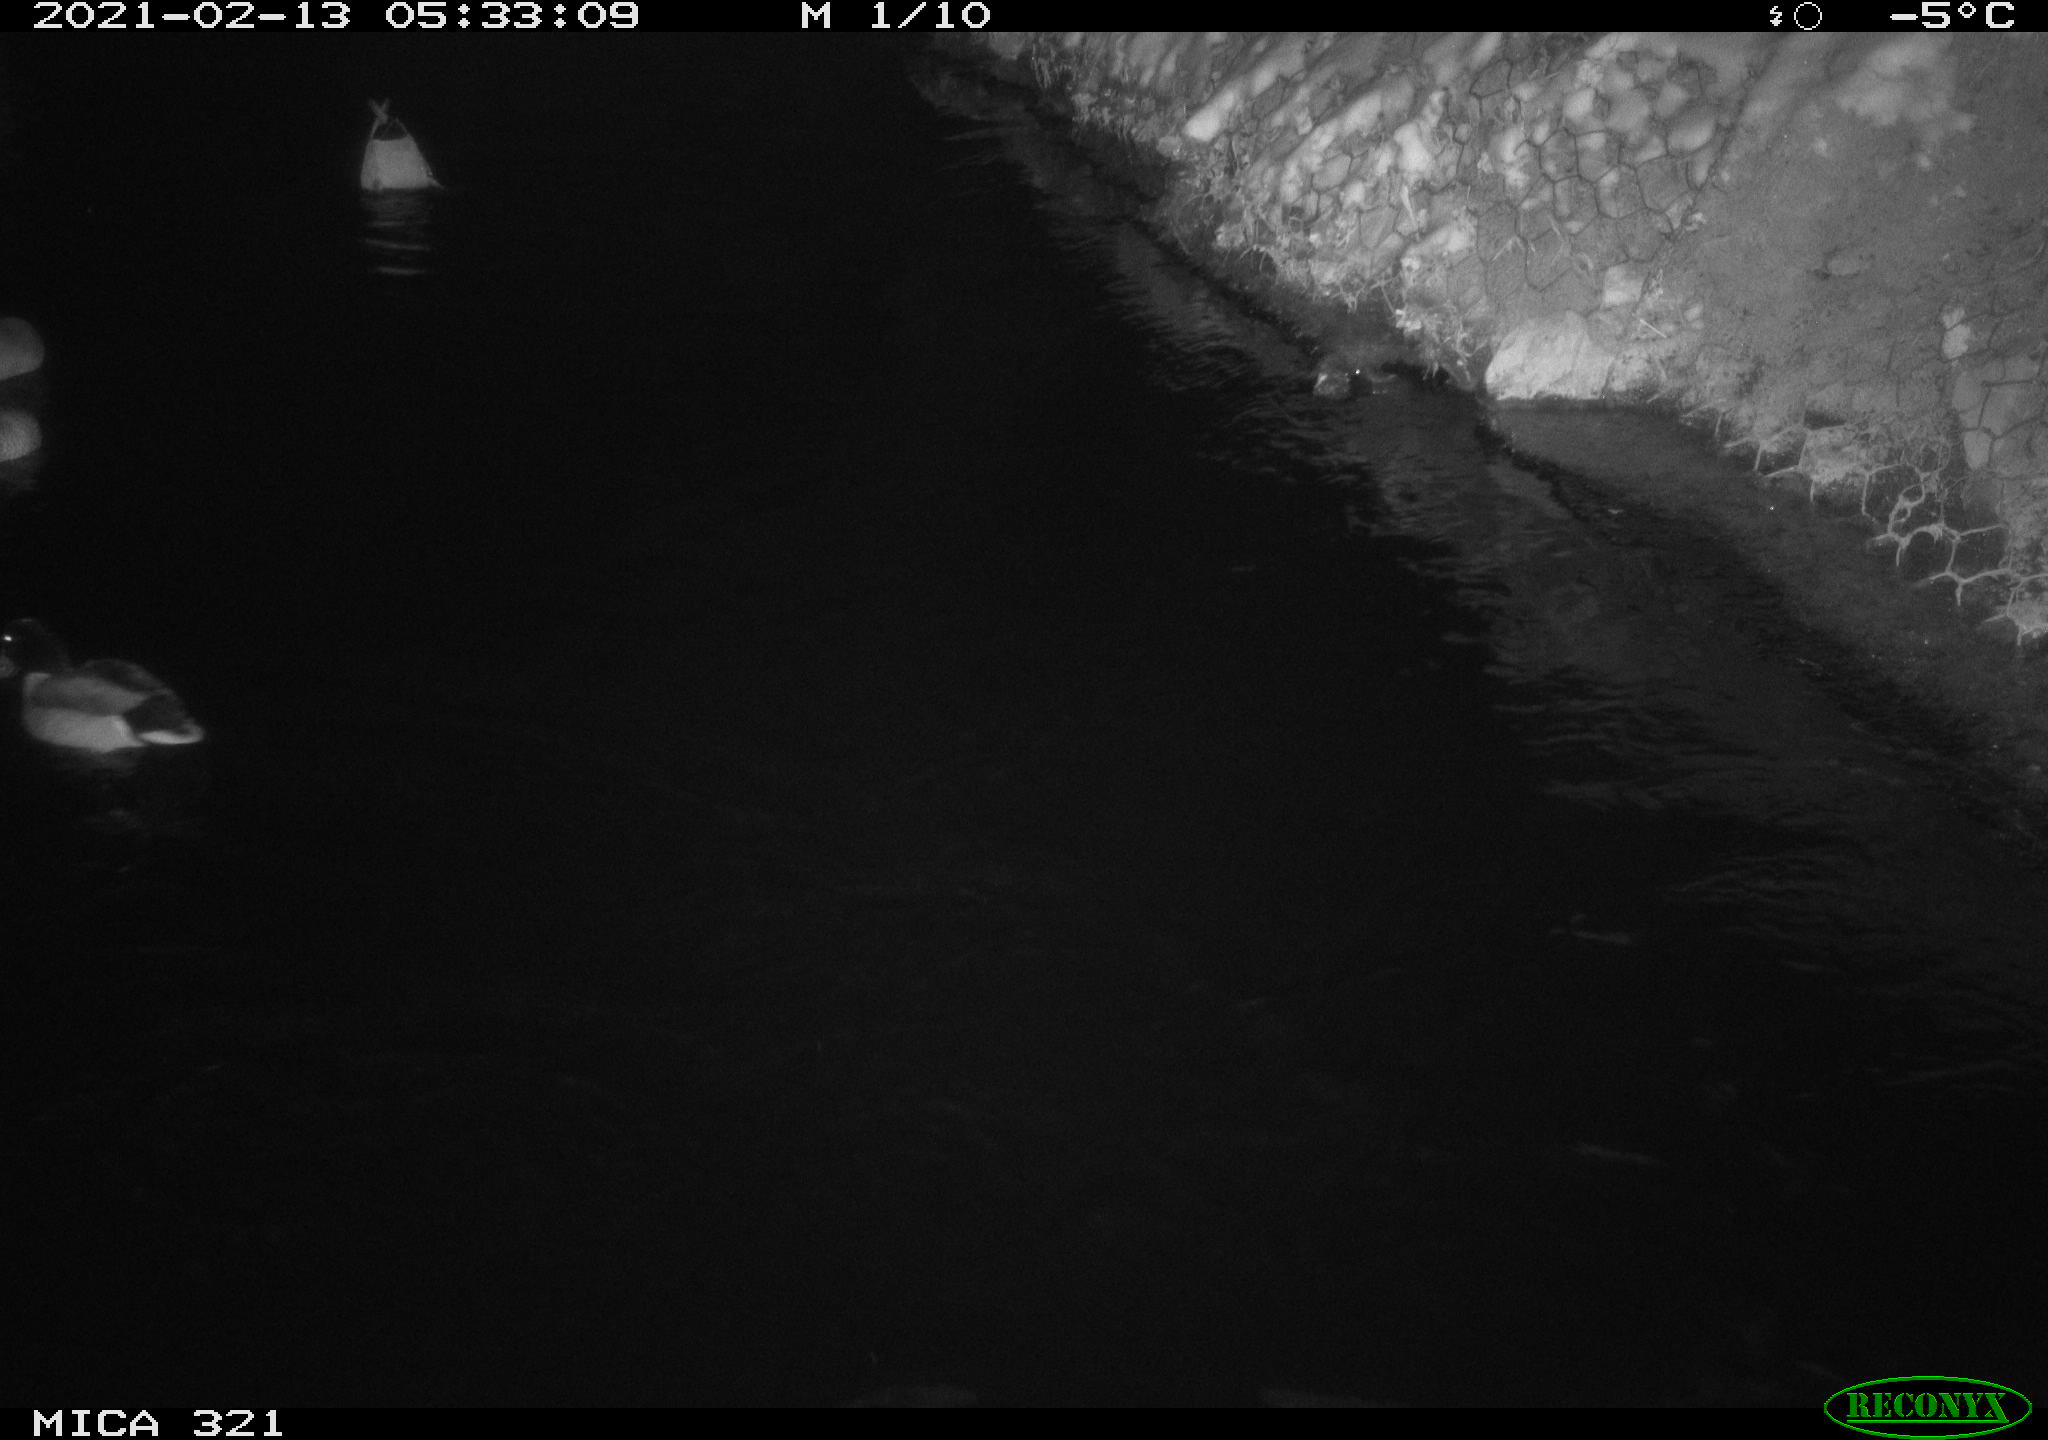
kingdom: Animalia
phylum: Chordata
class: Aves
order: Anseriformes
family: Anatidae
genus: Anas
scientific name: Anas platyrhynchos
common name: Mallard
